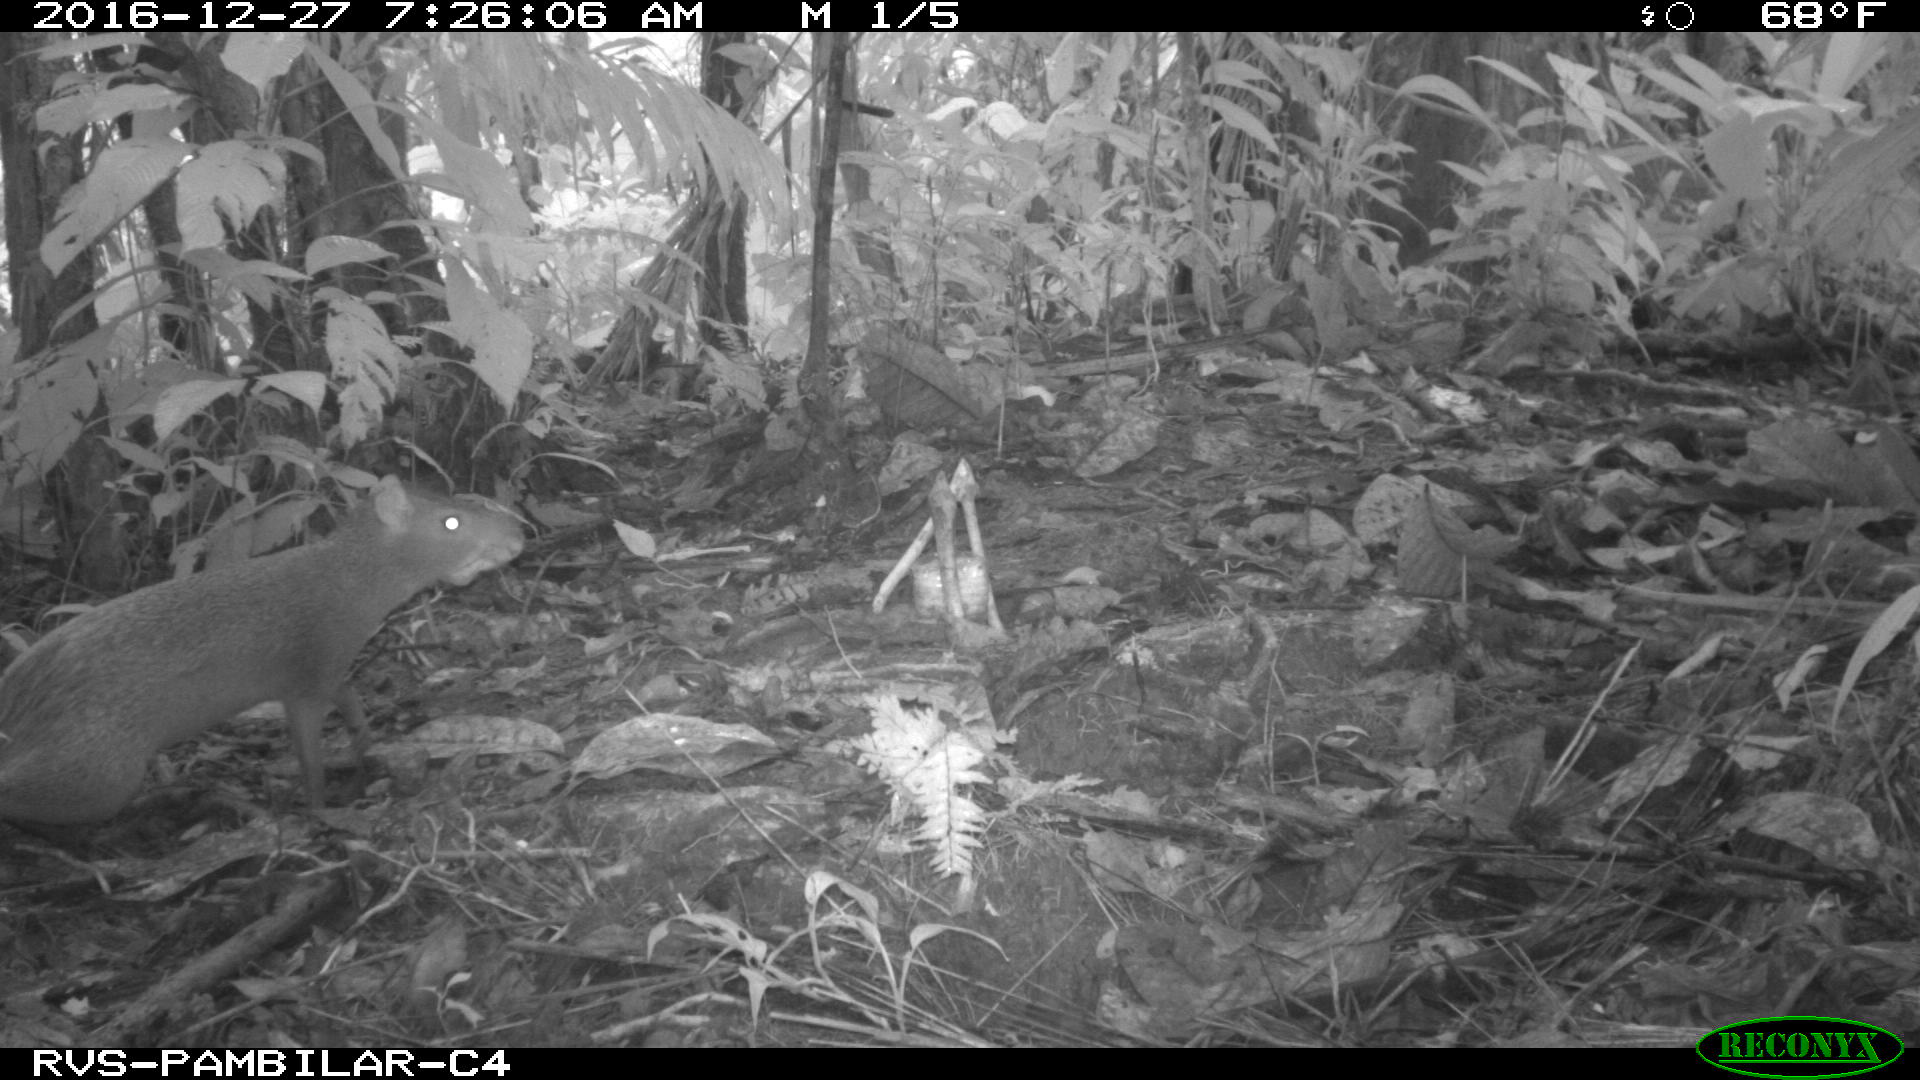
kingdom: Animalia
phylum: Chordata
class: Mammalia
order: Rodentia
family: Dasyproctidae
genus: Dasyprocta
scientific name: Dasyprocta punctata
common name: Central american agouti
